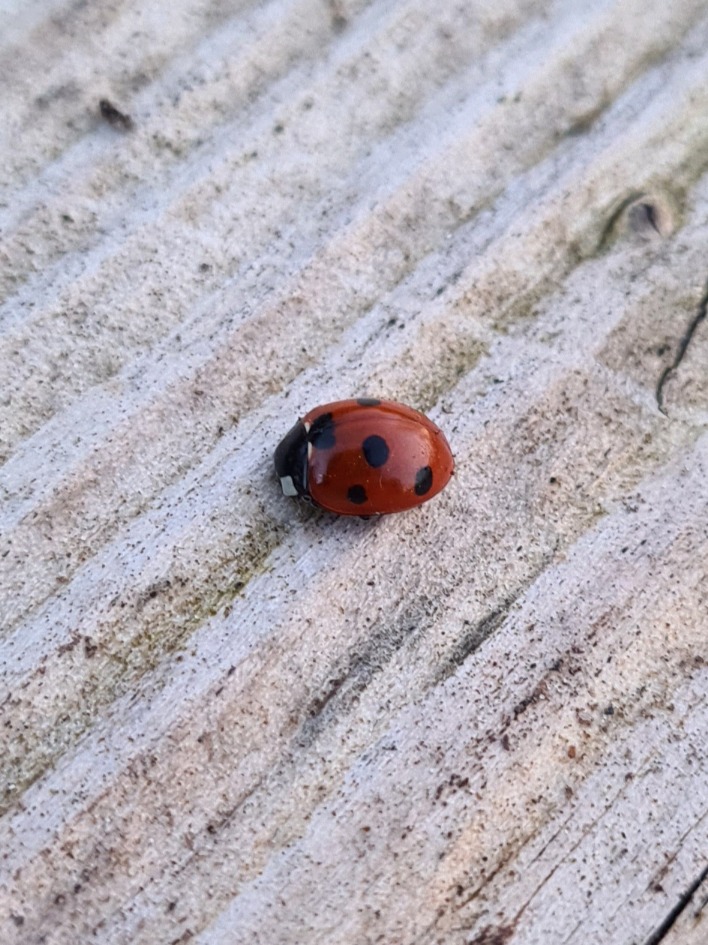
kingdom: Animalia
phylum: Arthropoda
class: Insecta
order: Coleoptera
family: Coccinellidae
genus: Coccinella
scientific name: Coccinella septempunctata
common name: Syvplettet mariehøne
